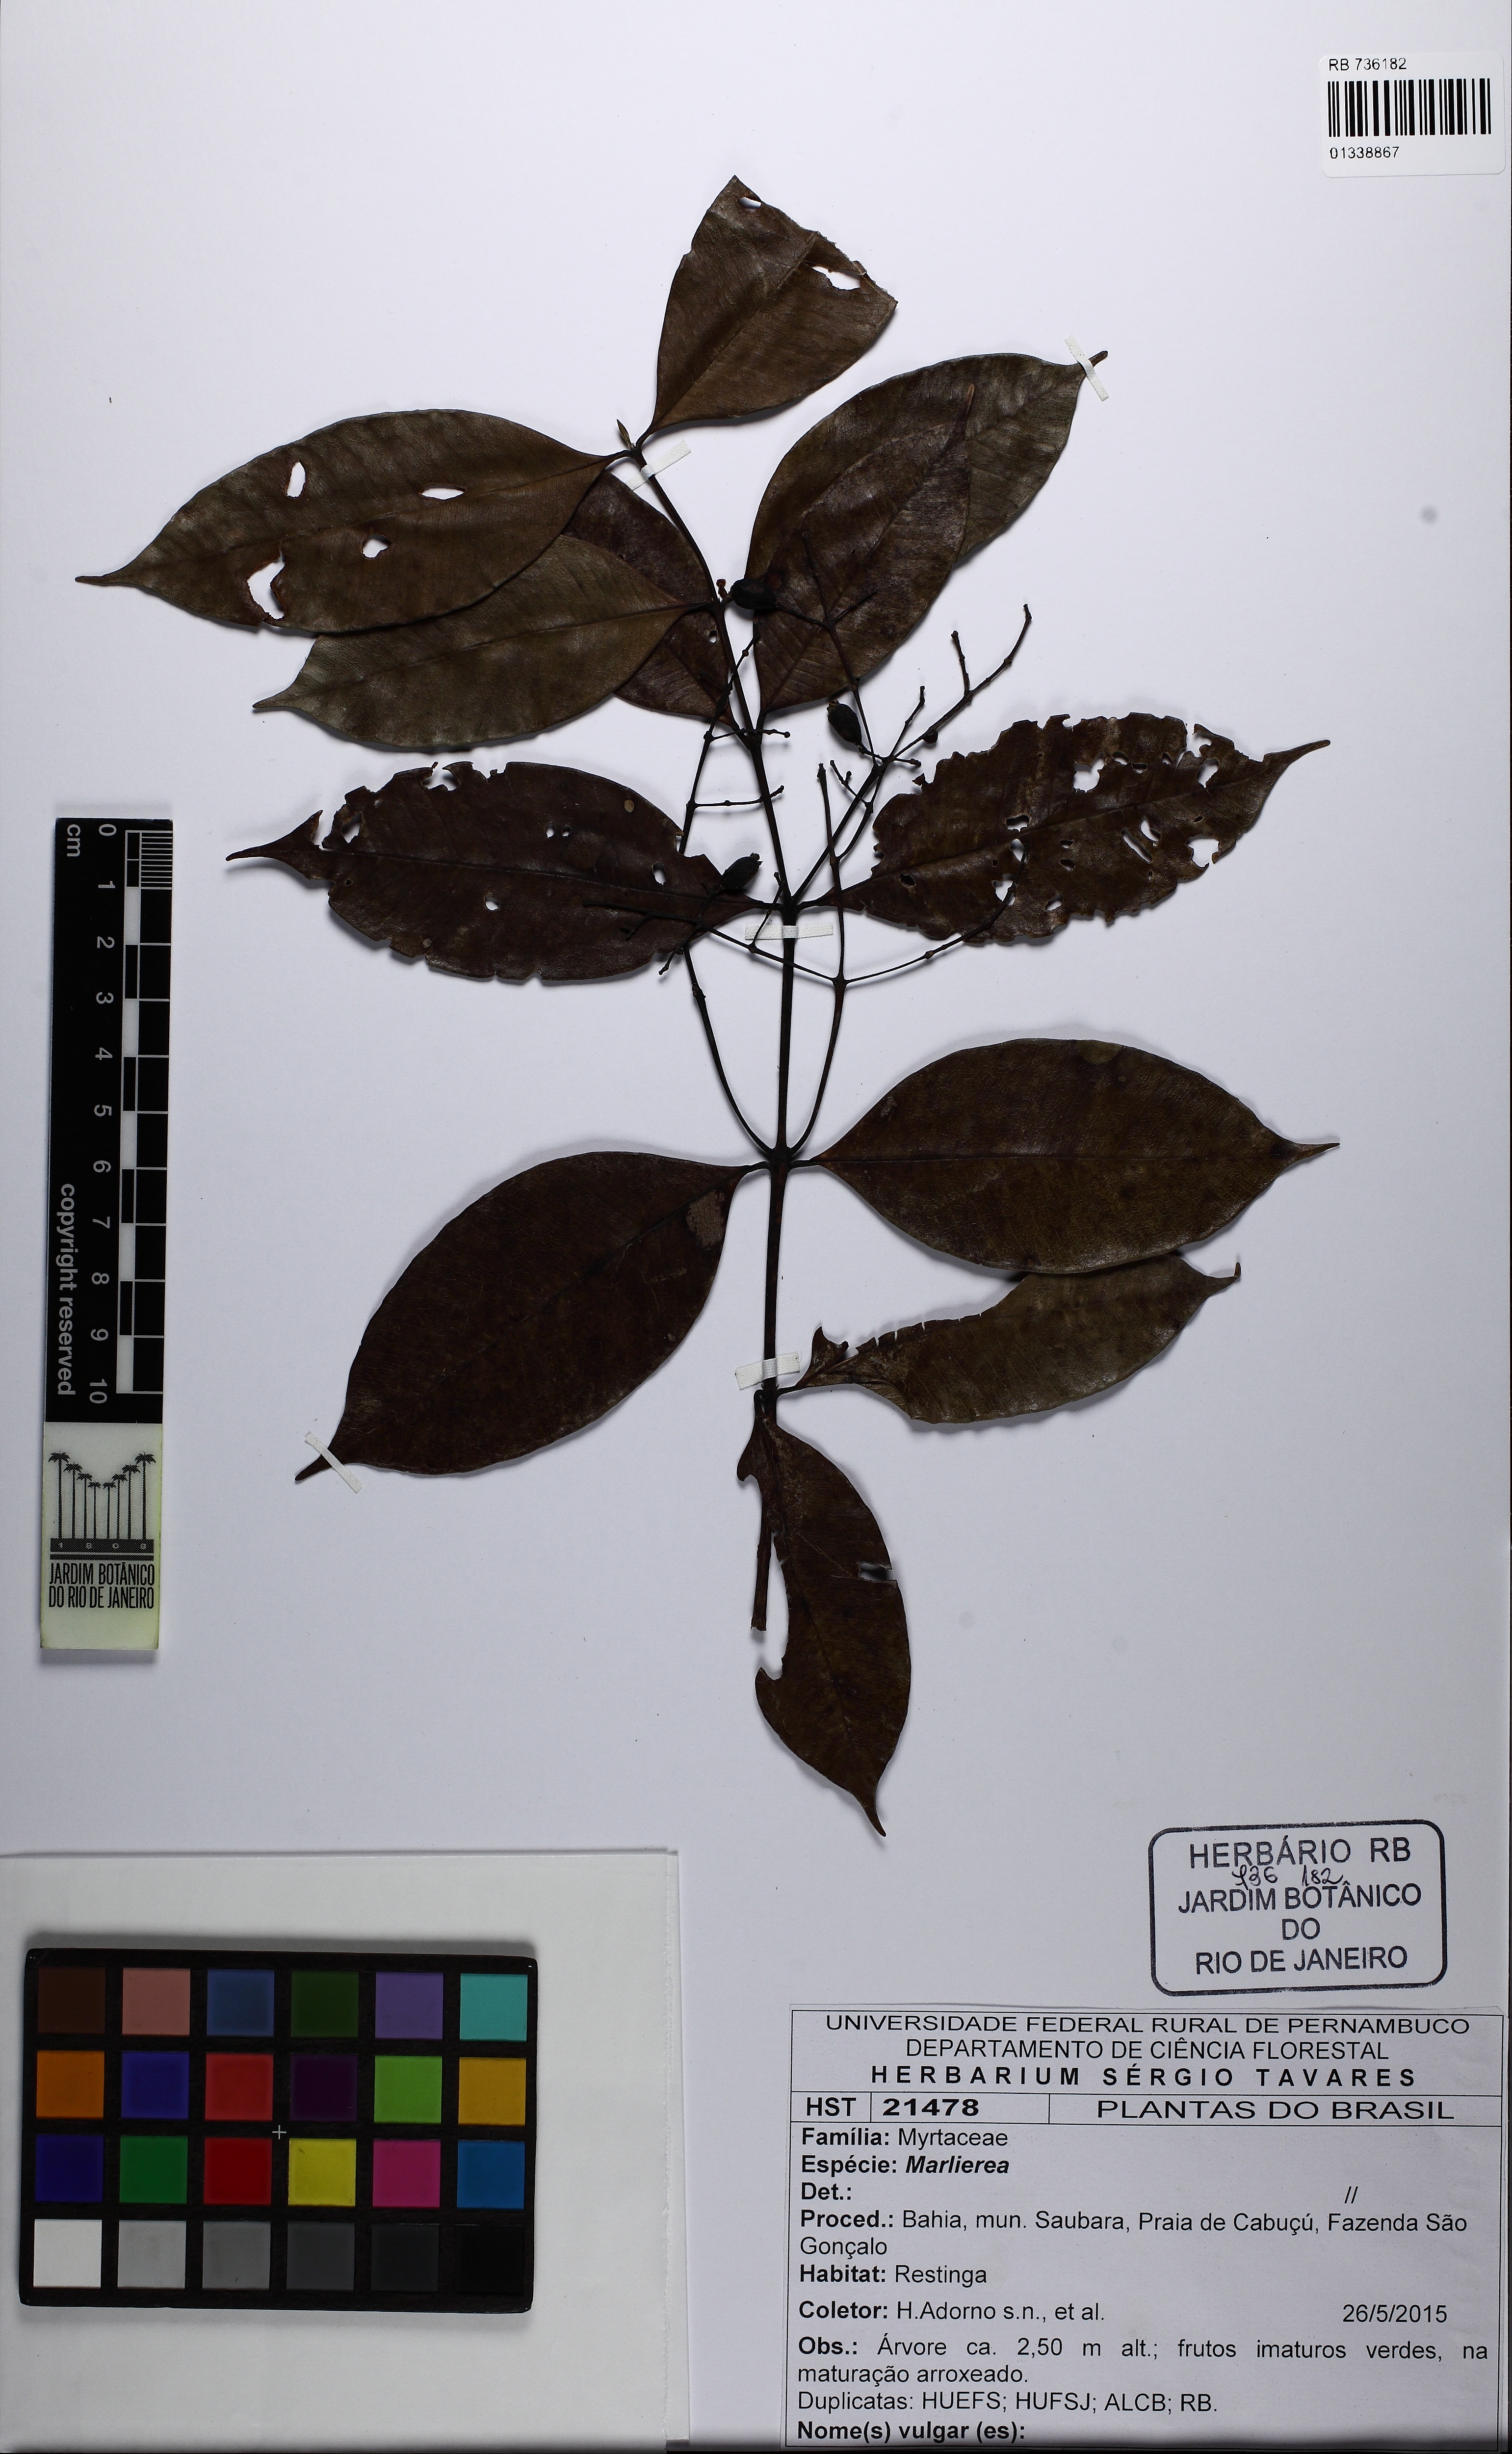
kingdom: Plantae
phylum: Tracheophyta
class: Magnoliopsida
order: Myrtales
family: Myrtaceae
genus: Myrcia
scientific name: Myrcia splendens
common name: Surinam cherry
